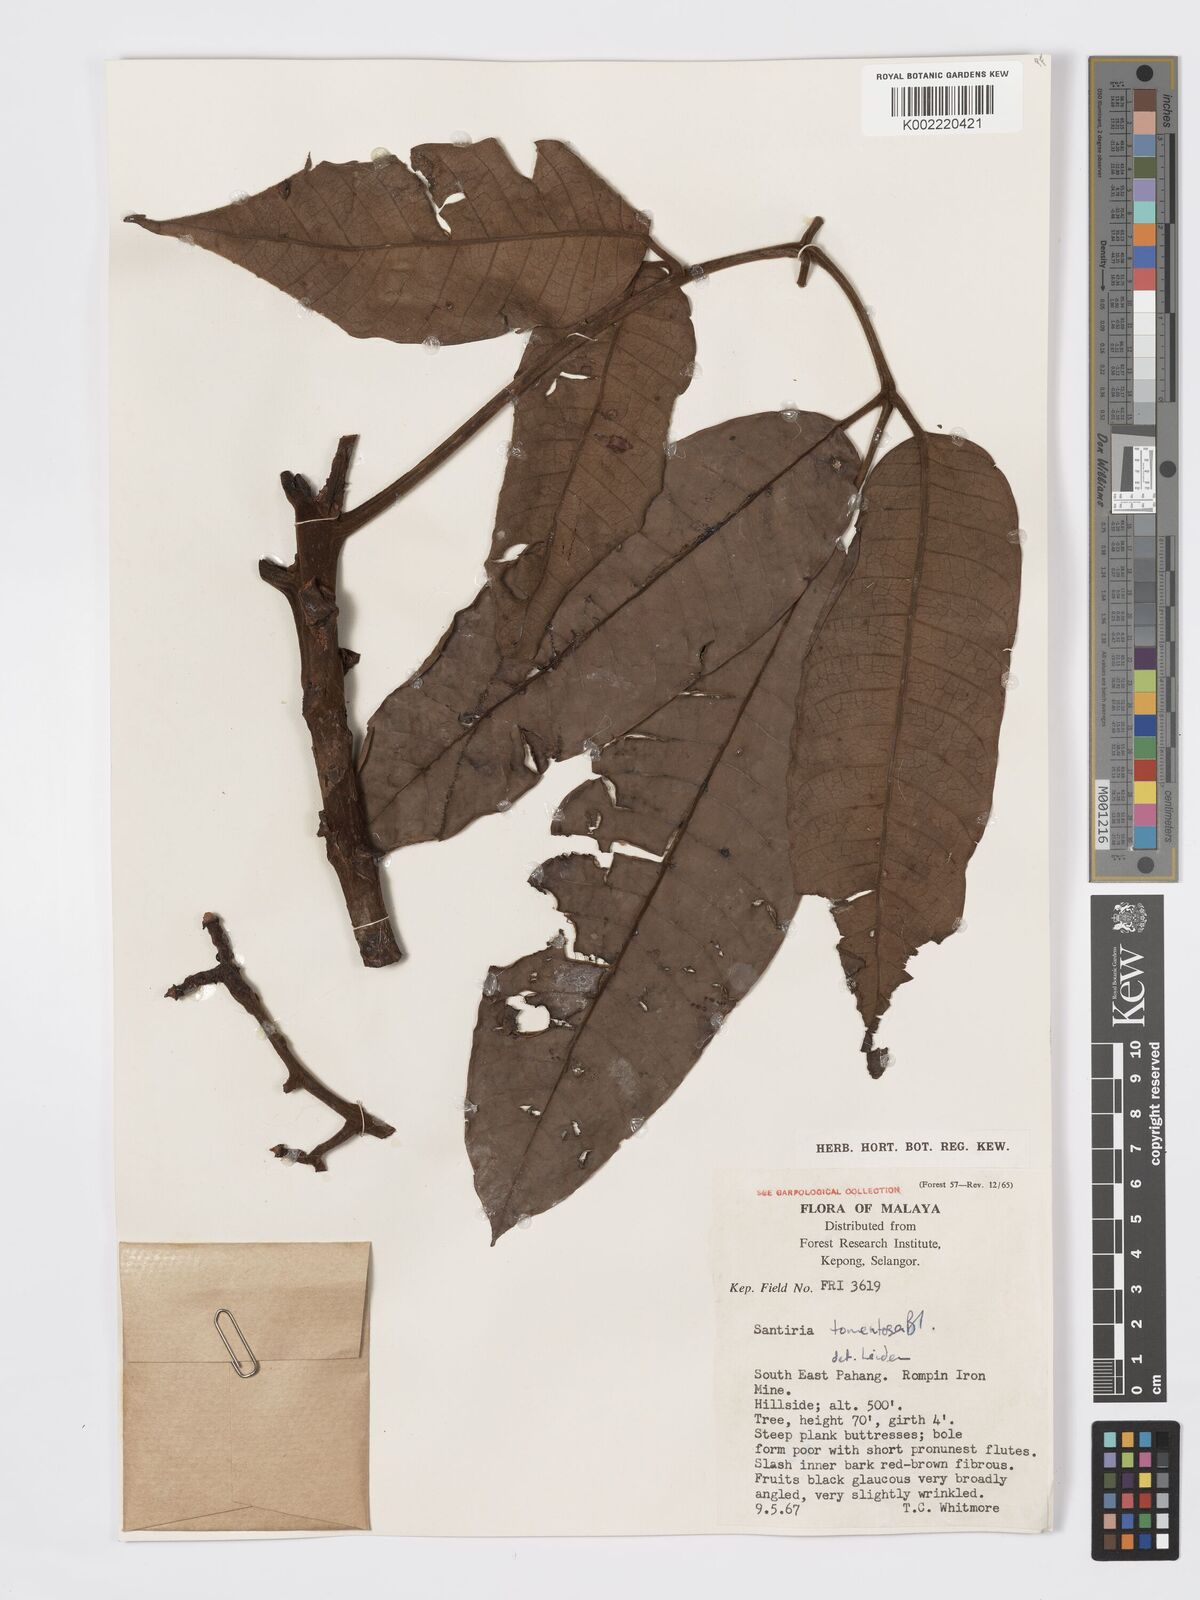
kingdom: Plantae
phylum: Tracheophyta
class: Magnoliopsida
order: Sapindales
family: Burseraceae
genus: Santiria
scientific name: Santiria tomentosa
